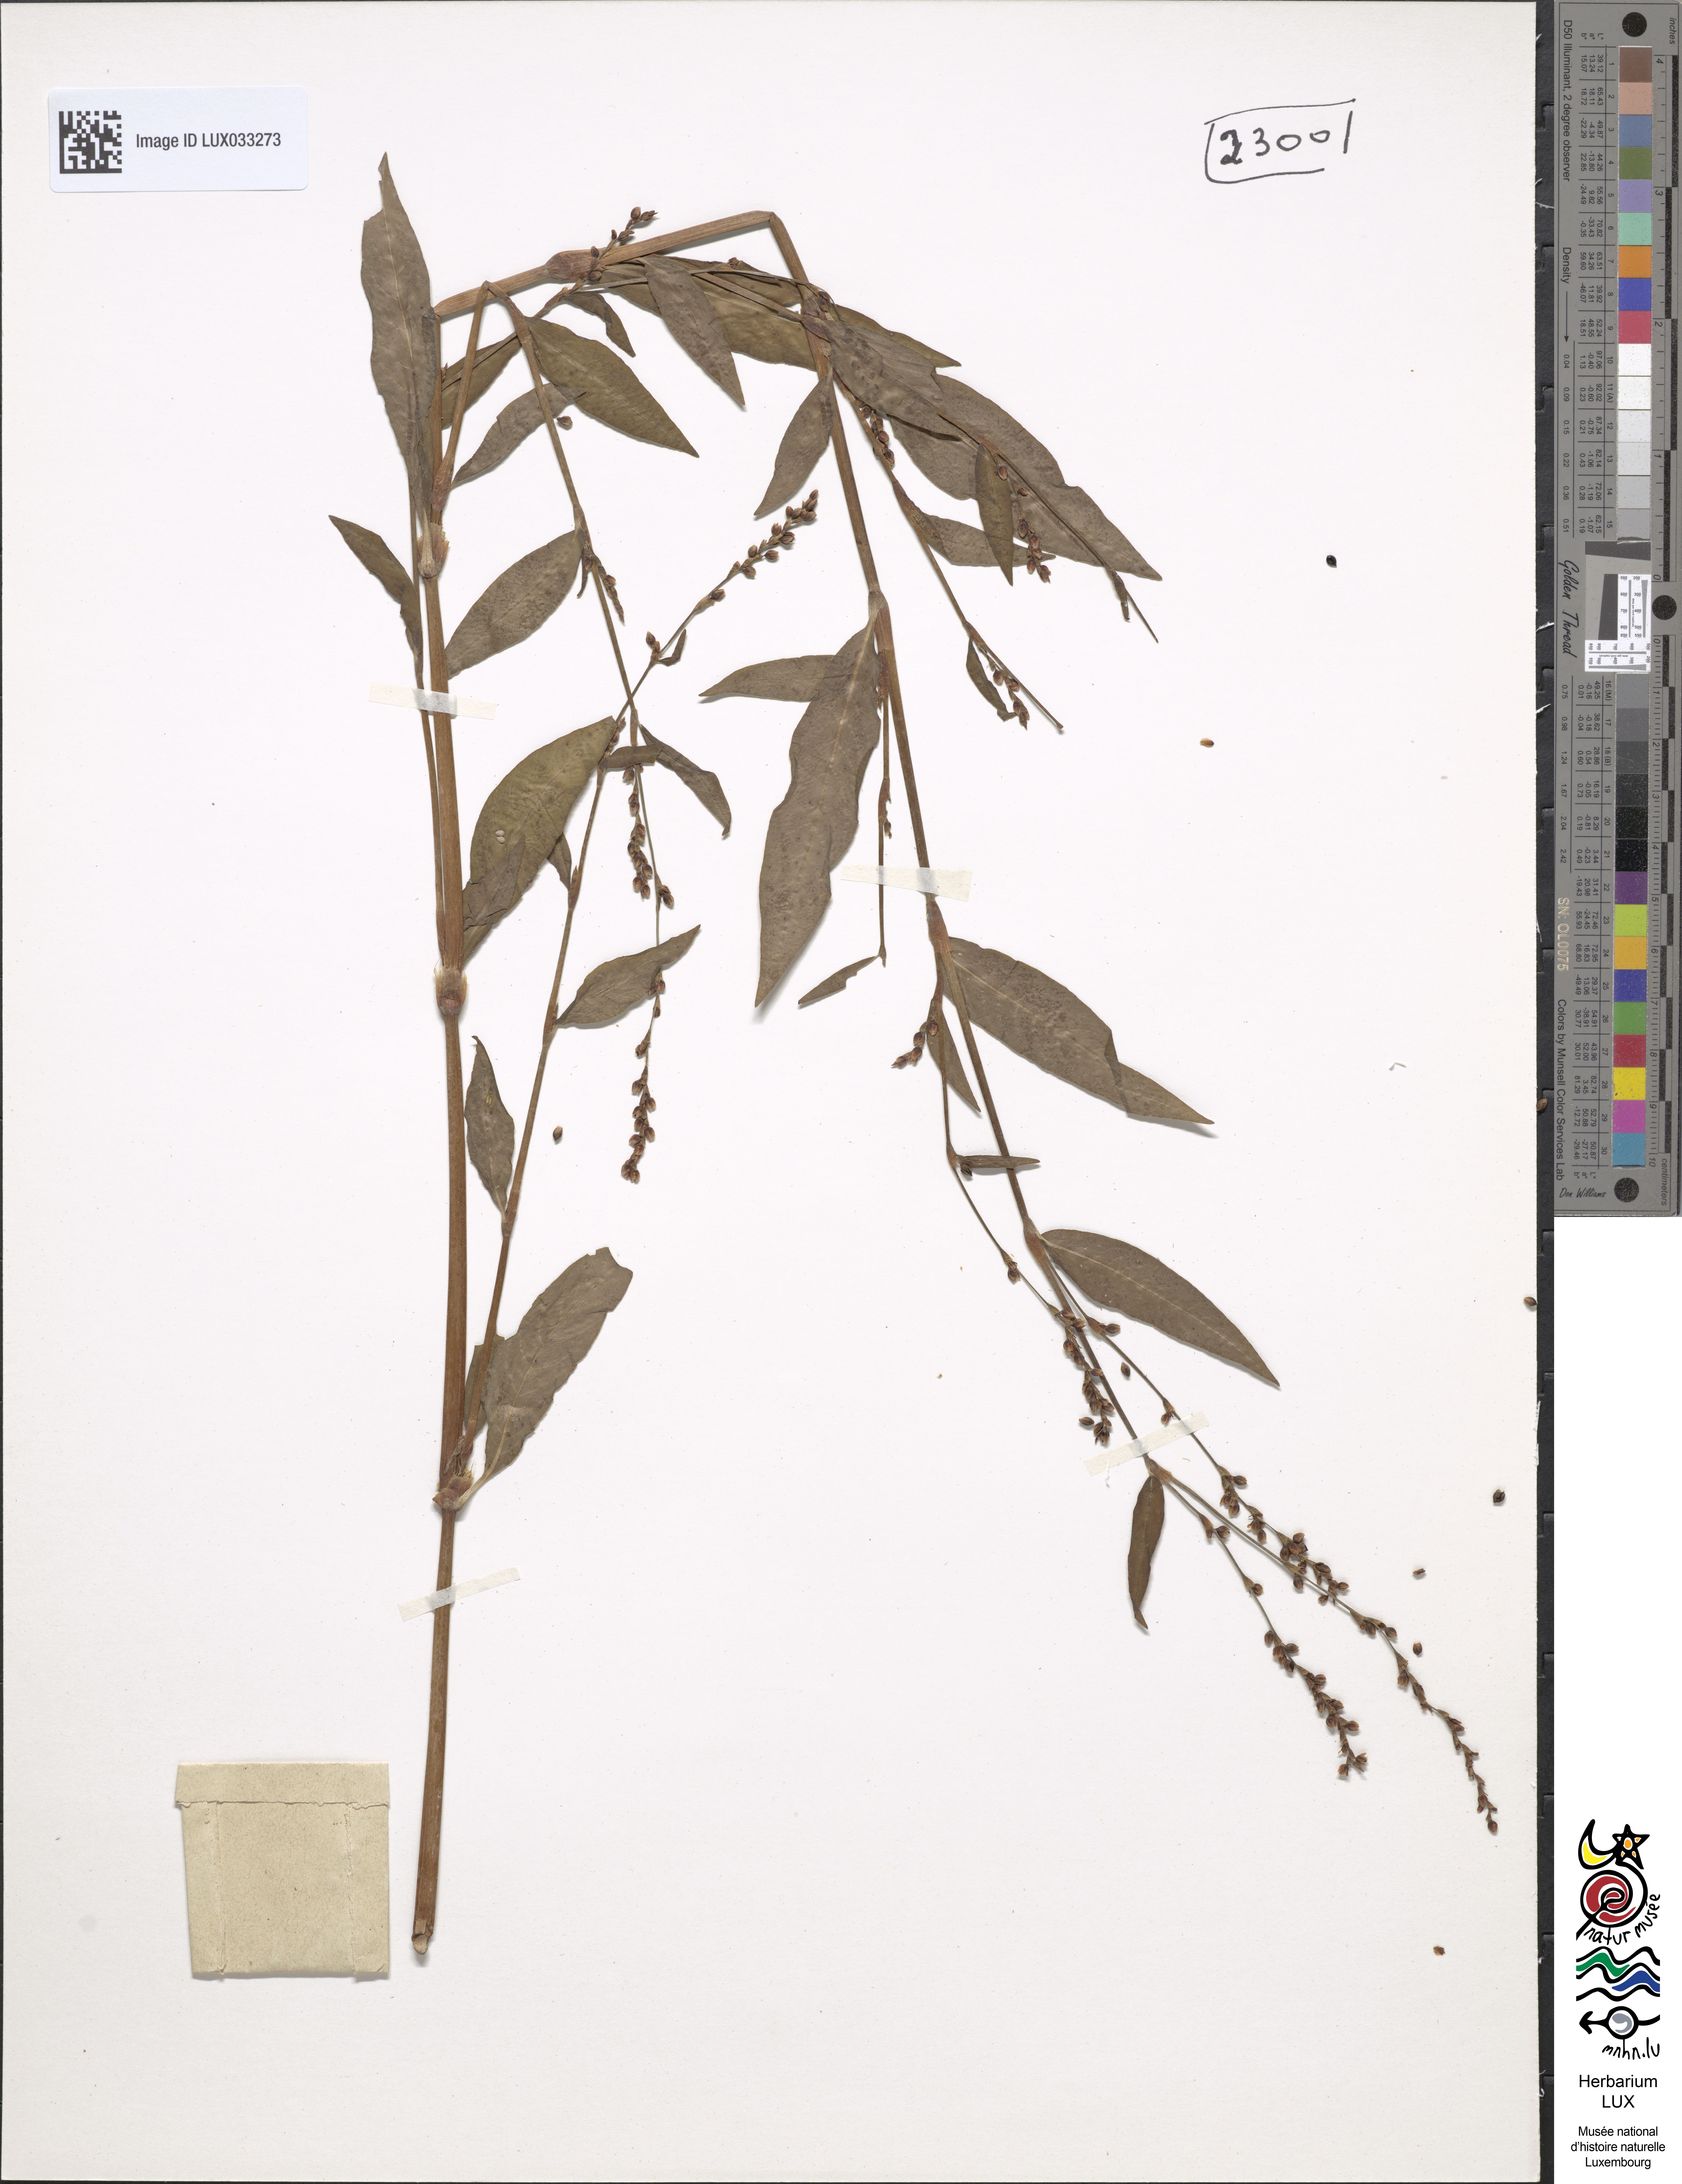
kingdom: Plantae
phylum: Tracheophyta
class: Magnoliopsida
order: Caryophyllales
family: Polygonaceae
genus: Persicaria
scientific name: Persicaria mitis
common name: Tasteless water-pepper
